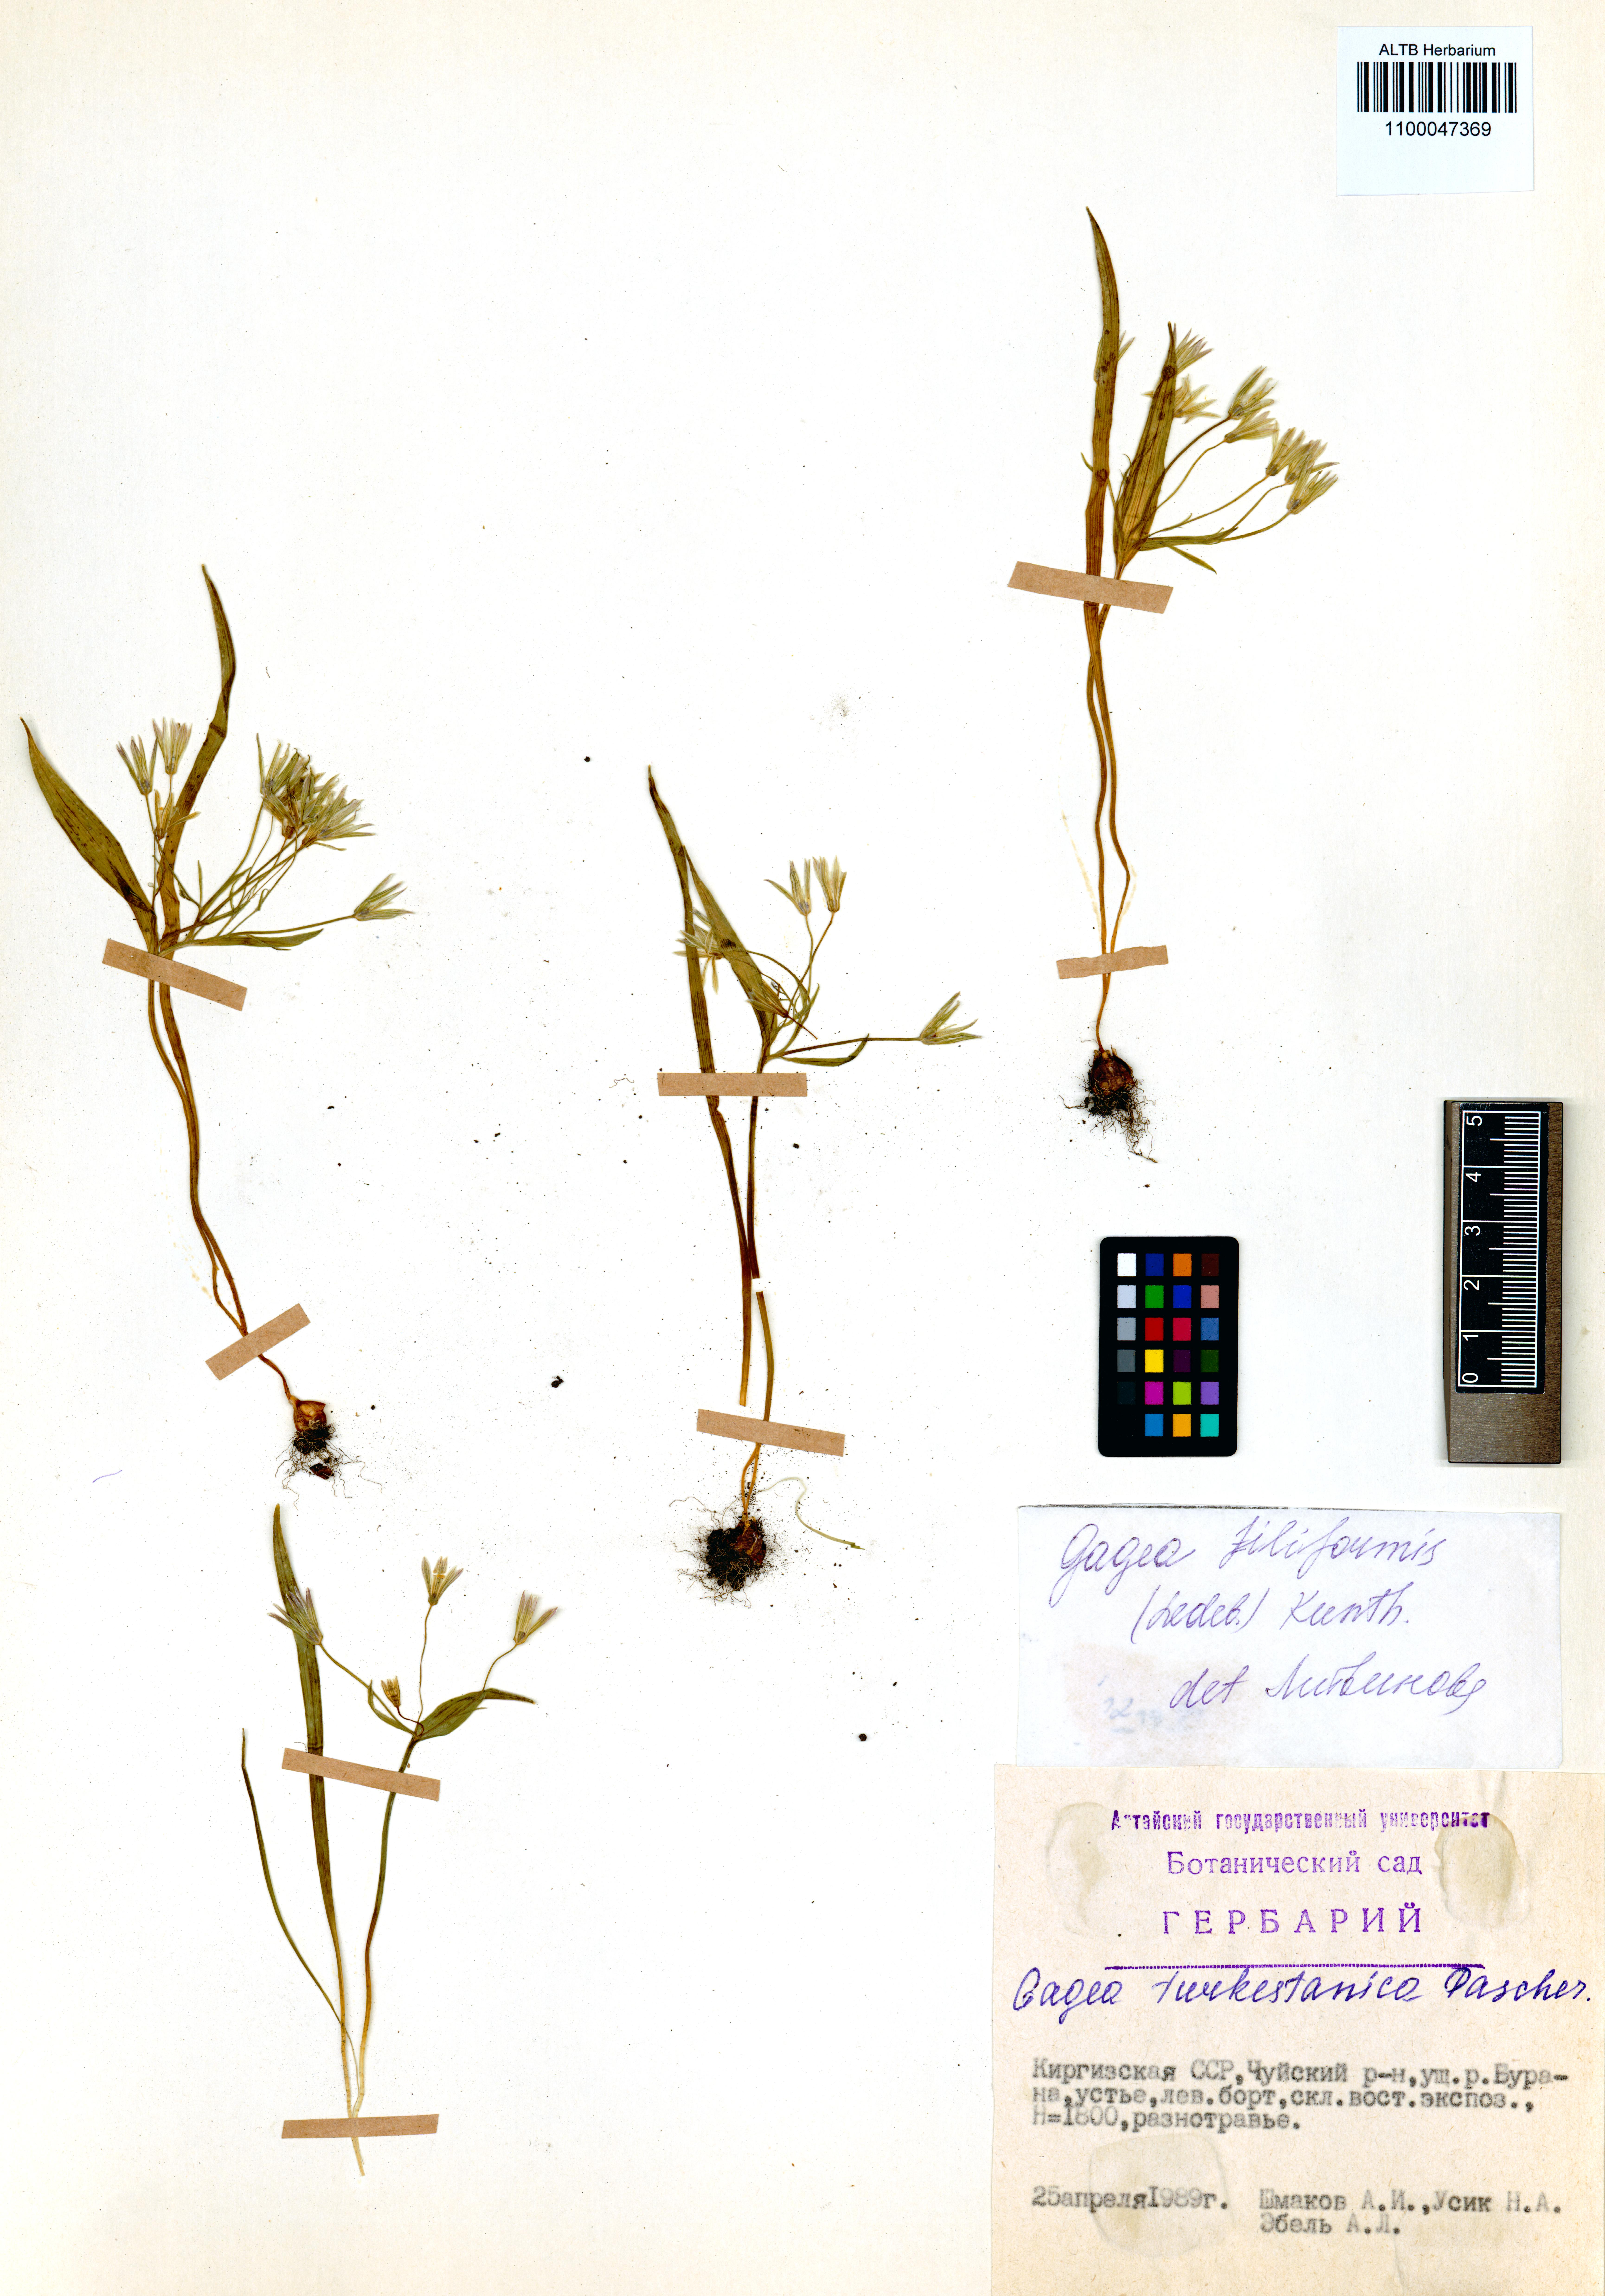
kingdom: Plantae
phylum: Tracheophyta
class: Liliopsida
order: Liliales
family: Liliaceae
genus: Gagea
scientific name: Gagea filiformis
